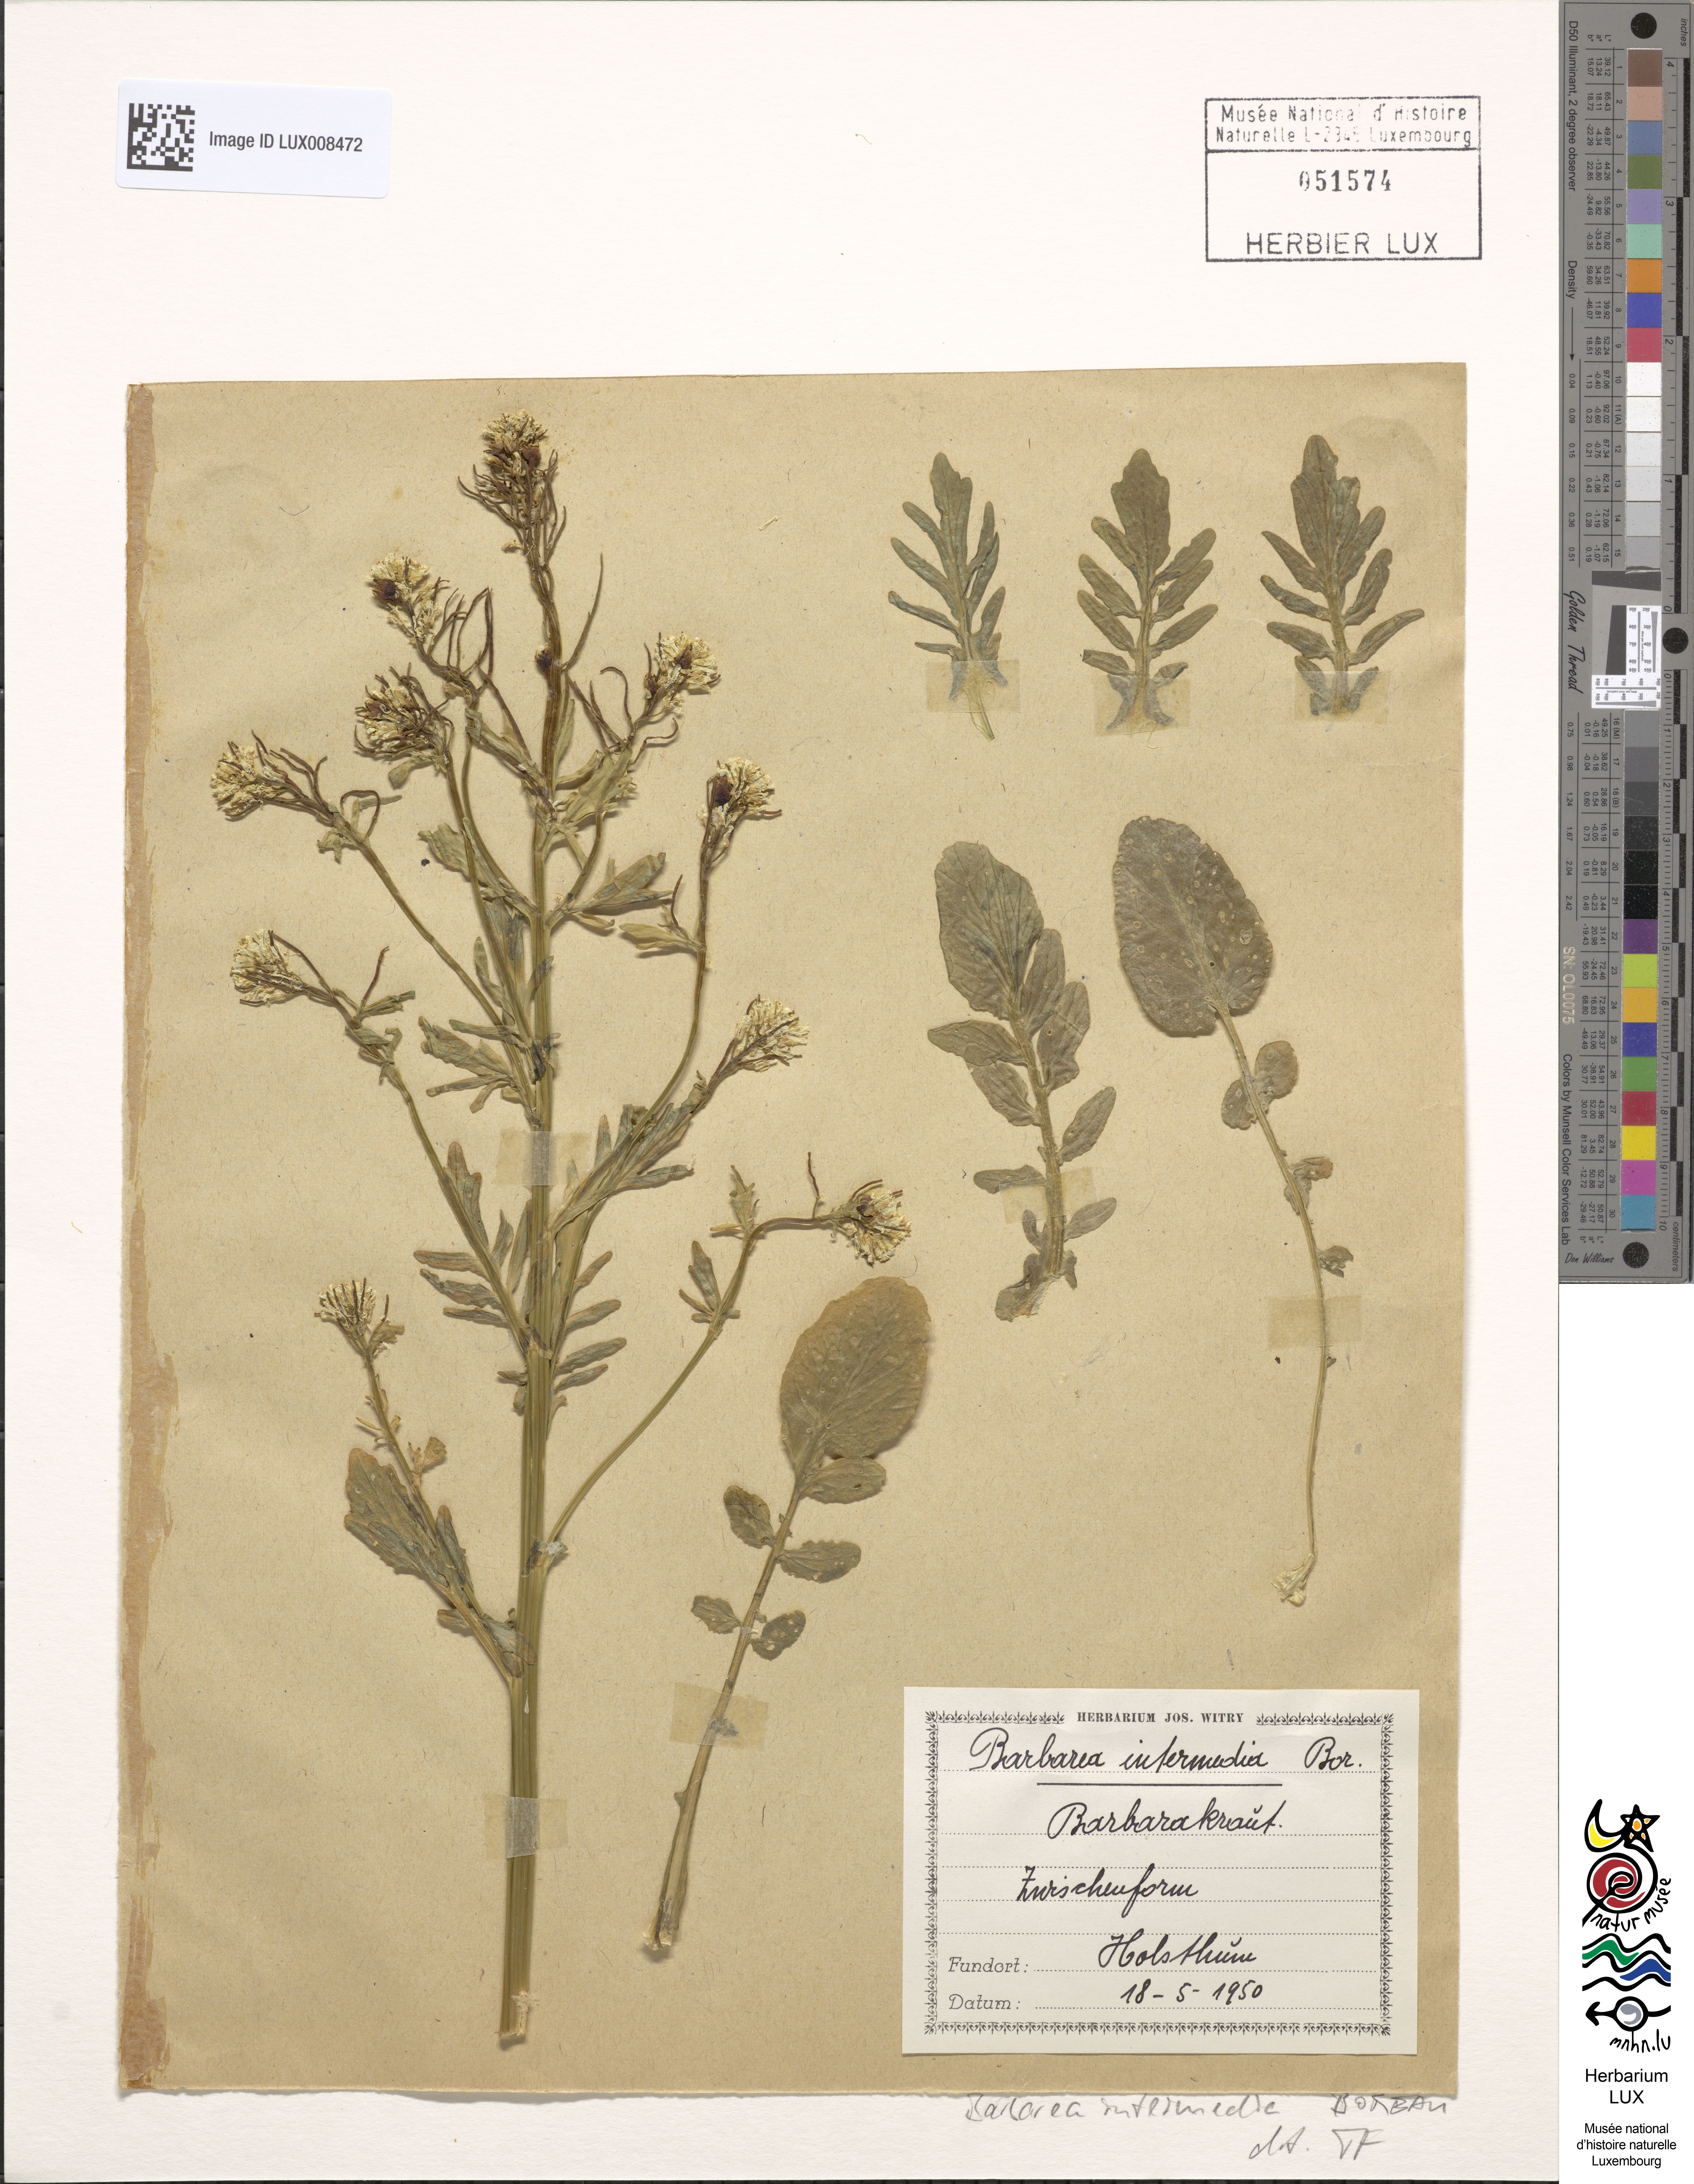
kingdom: Plantae
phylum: Tracheophyta
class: Magnoliopsida
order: Brassicales
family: Brassicaceae
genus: Barbarea
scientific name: Barbarea intermedia
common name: Medium-flowered winter-cress
